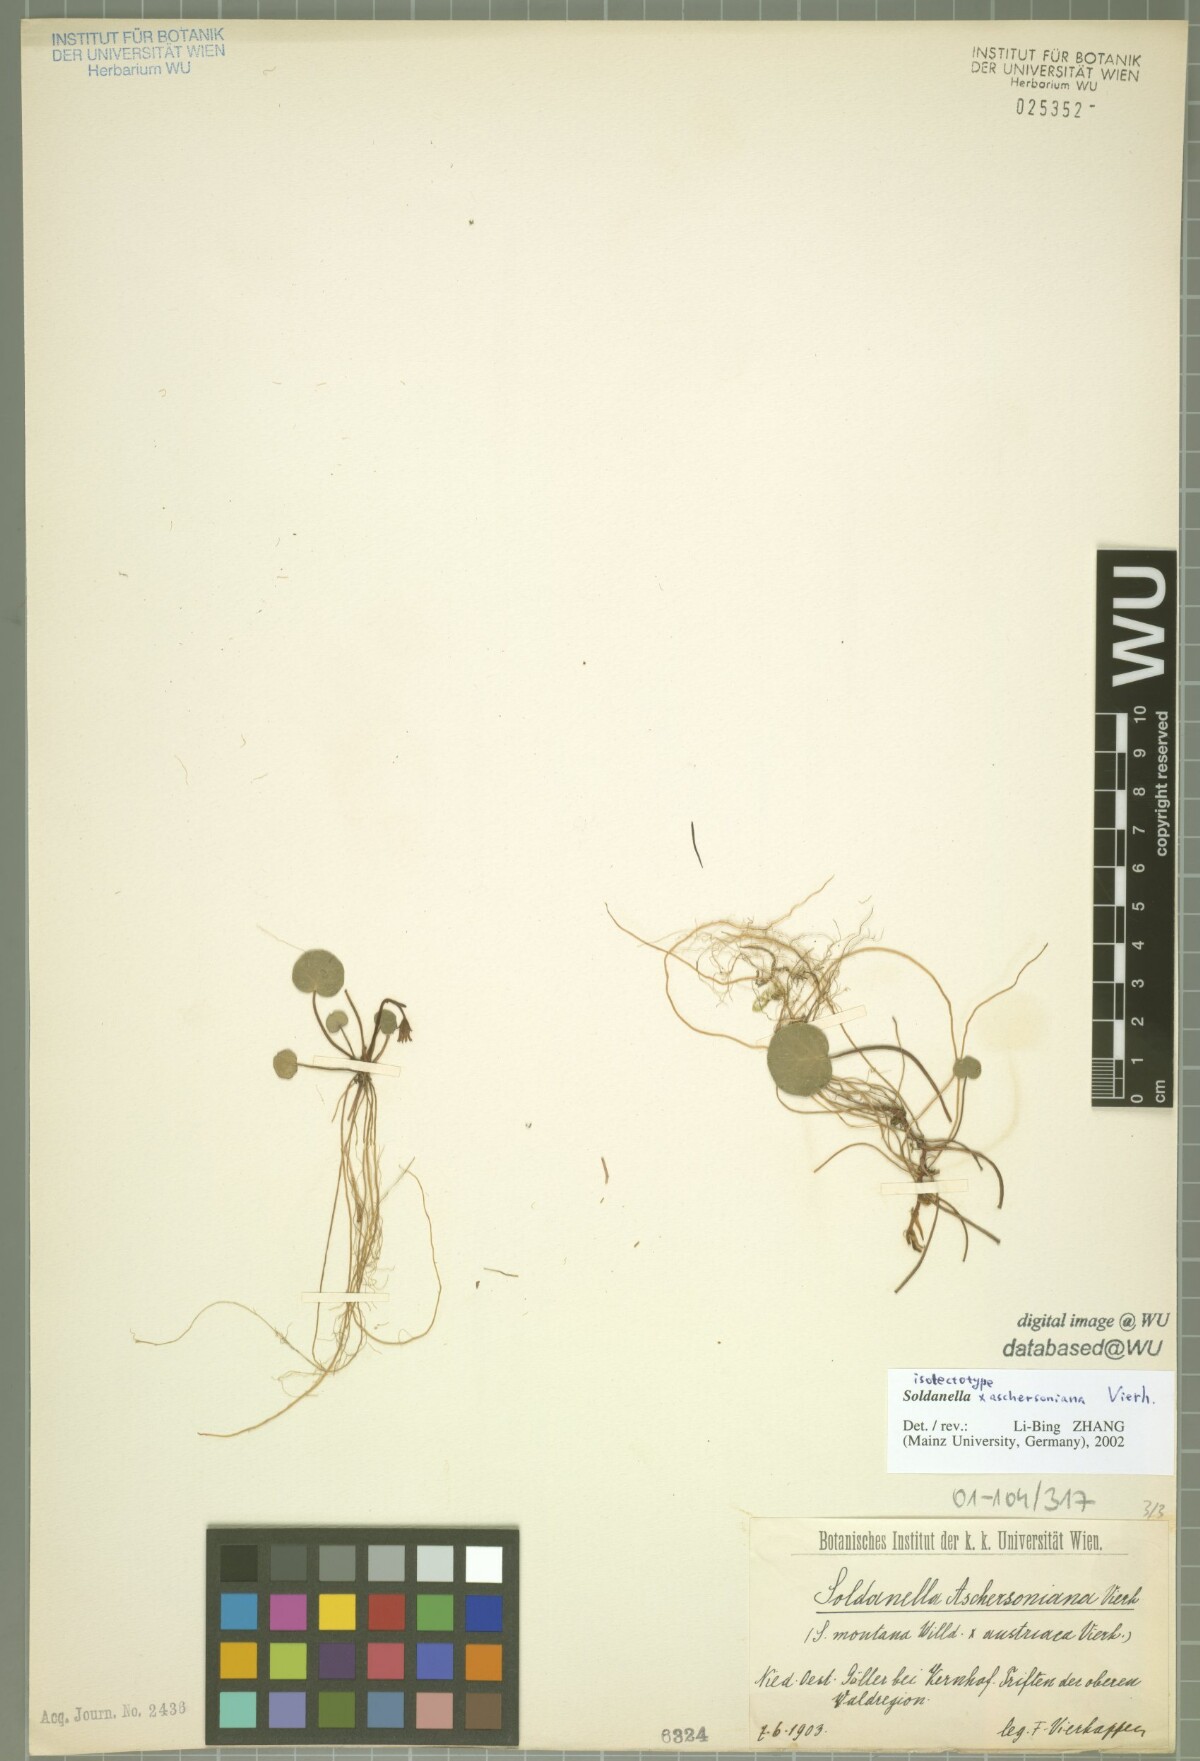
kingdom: Plantae
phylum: Tracheophyta
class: Magnoliopsida
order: Ericales
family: Primulaceae
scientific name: Primulaceae
